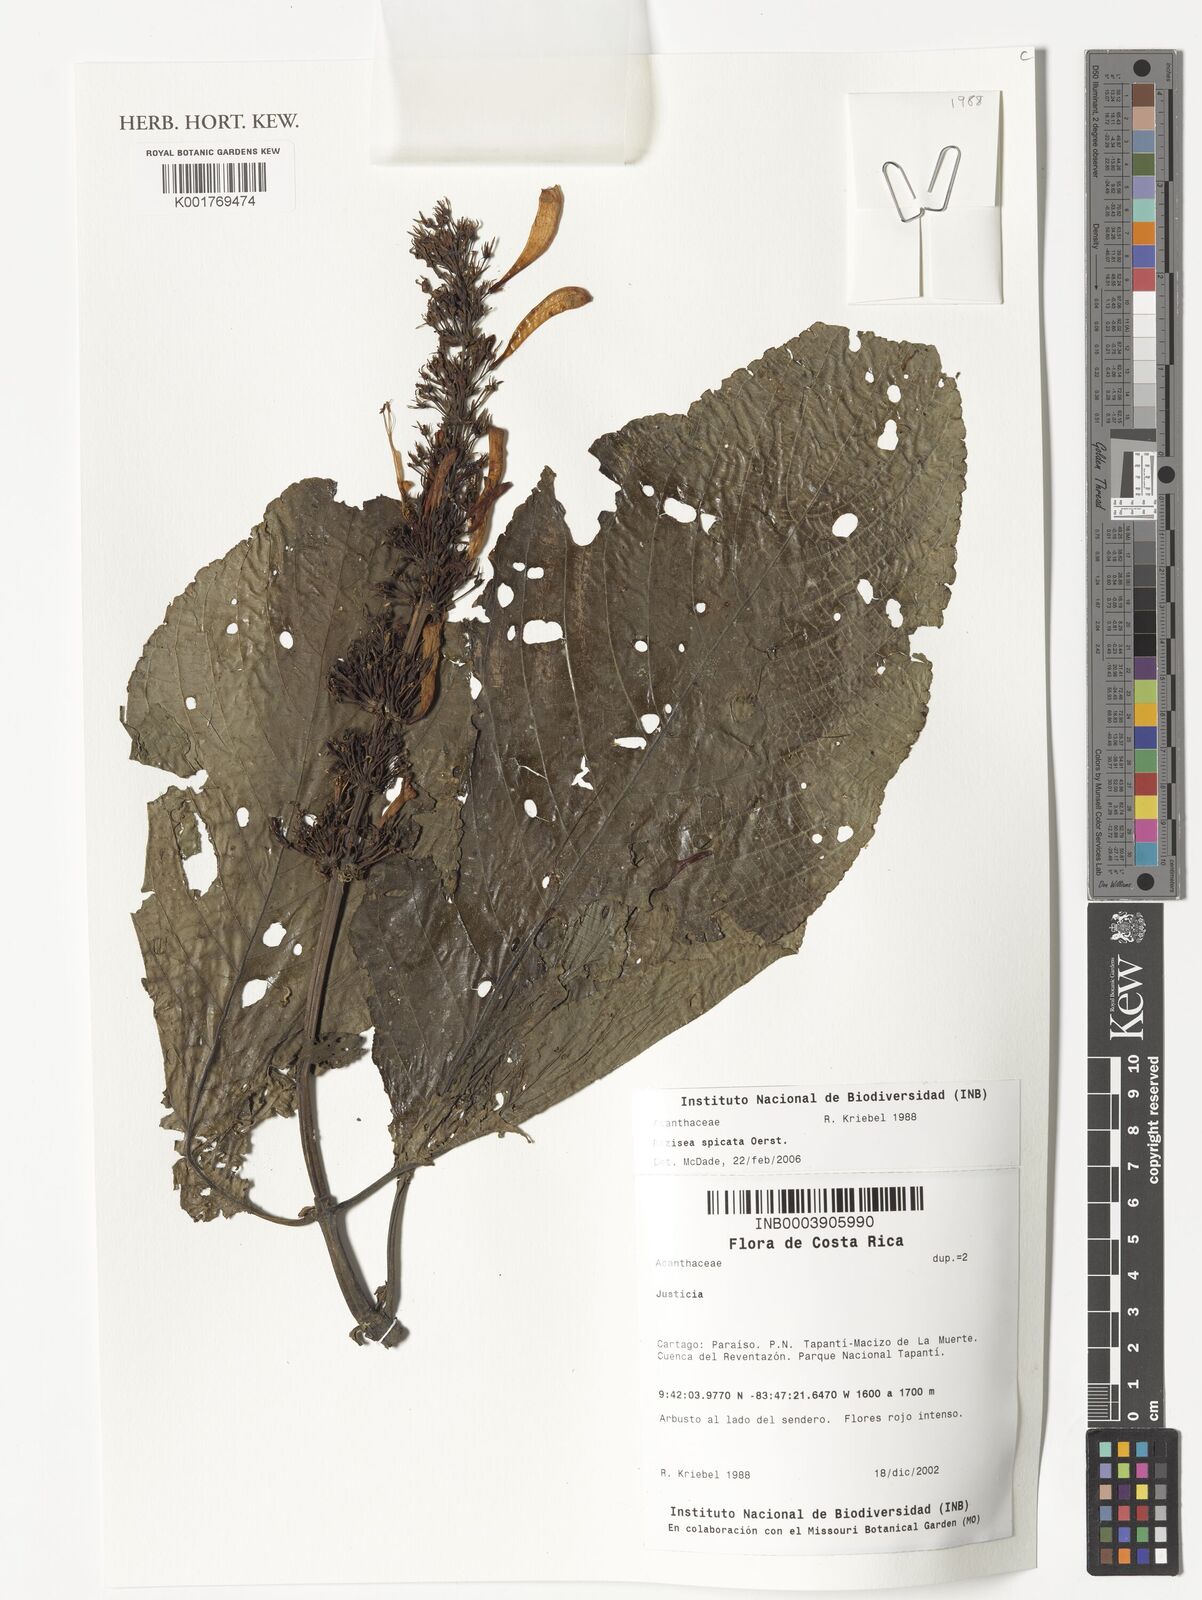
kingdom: Plantae
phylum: Tracheophyta
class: Magnoliopsida
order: Lamiales
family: Acanthaceae
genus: Stenostephanus
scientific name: Stenostephanus leiorhachis
